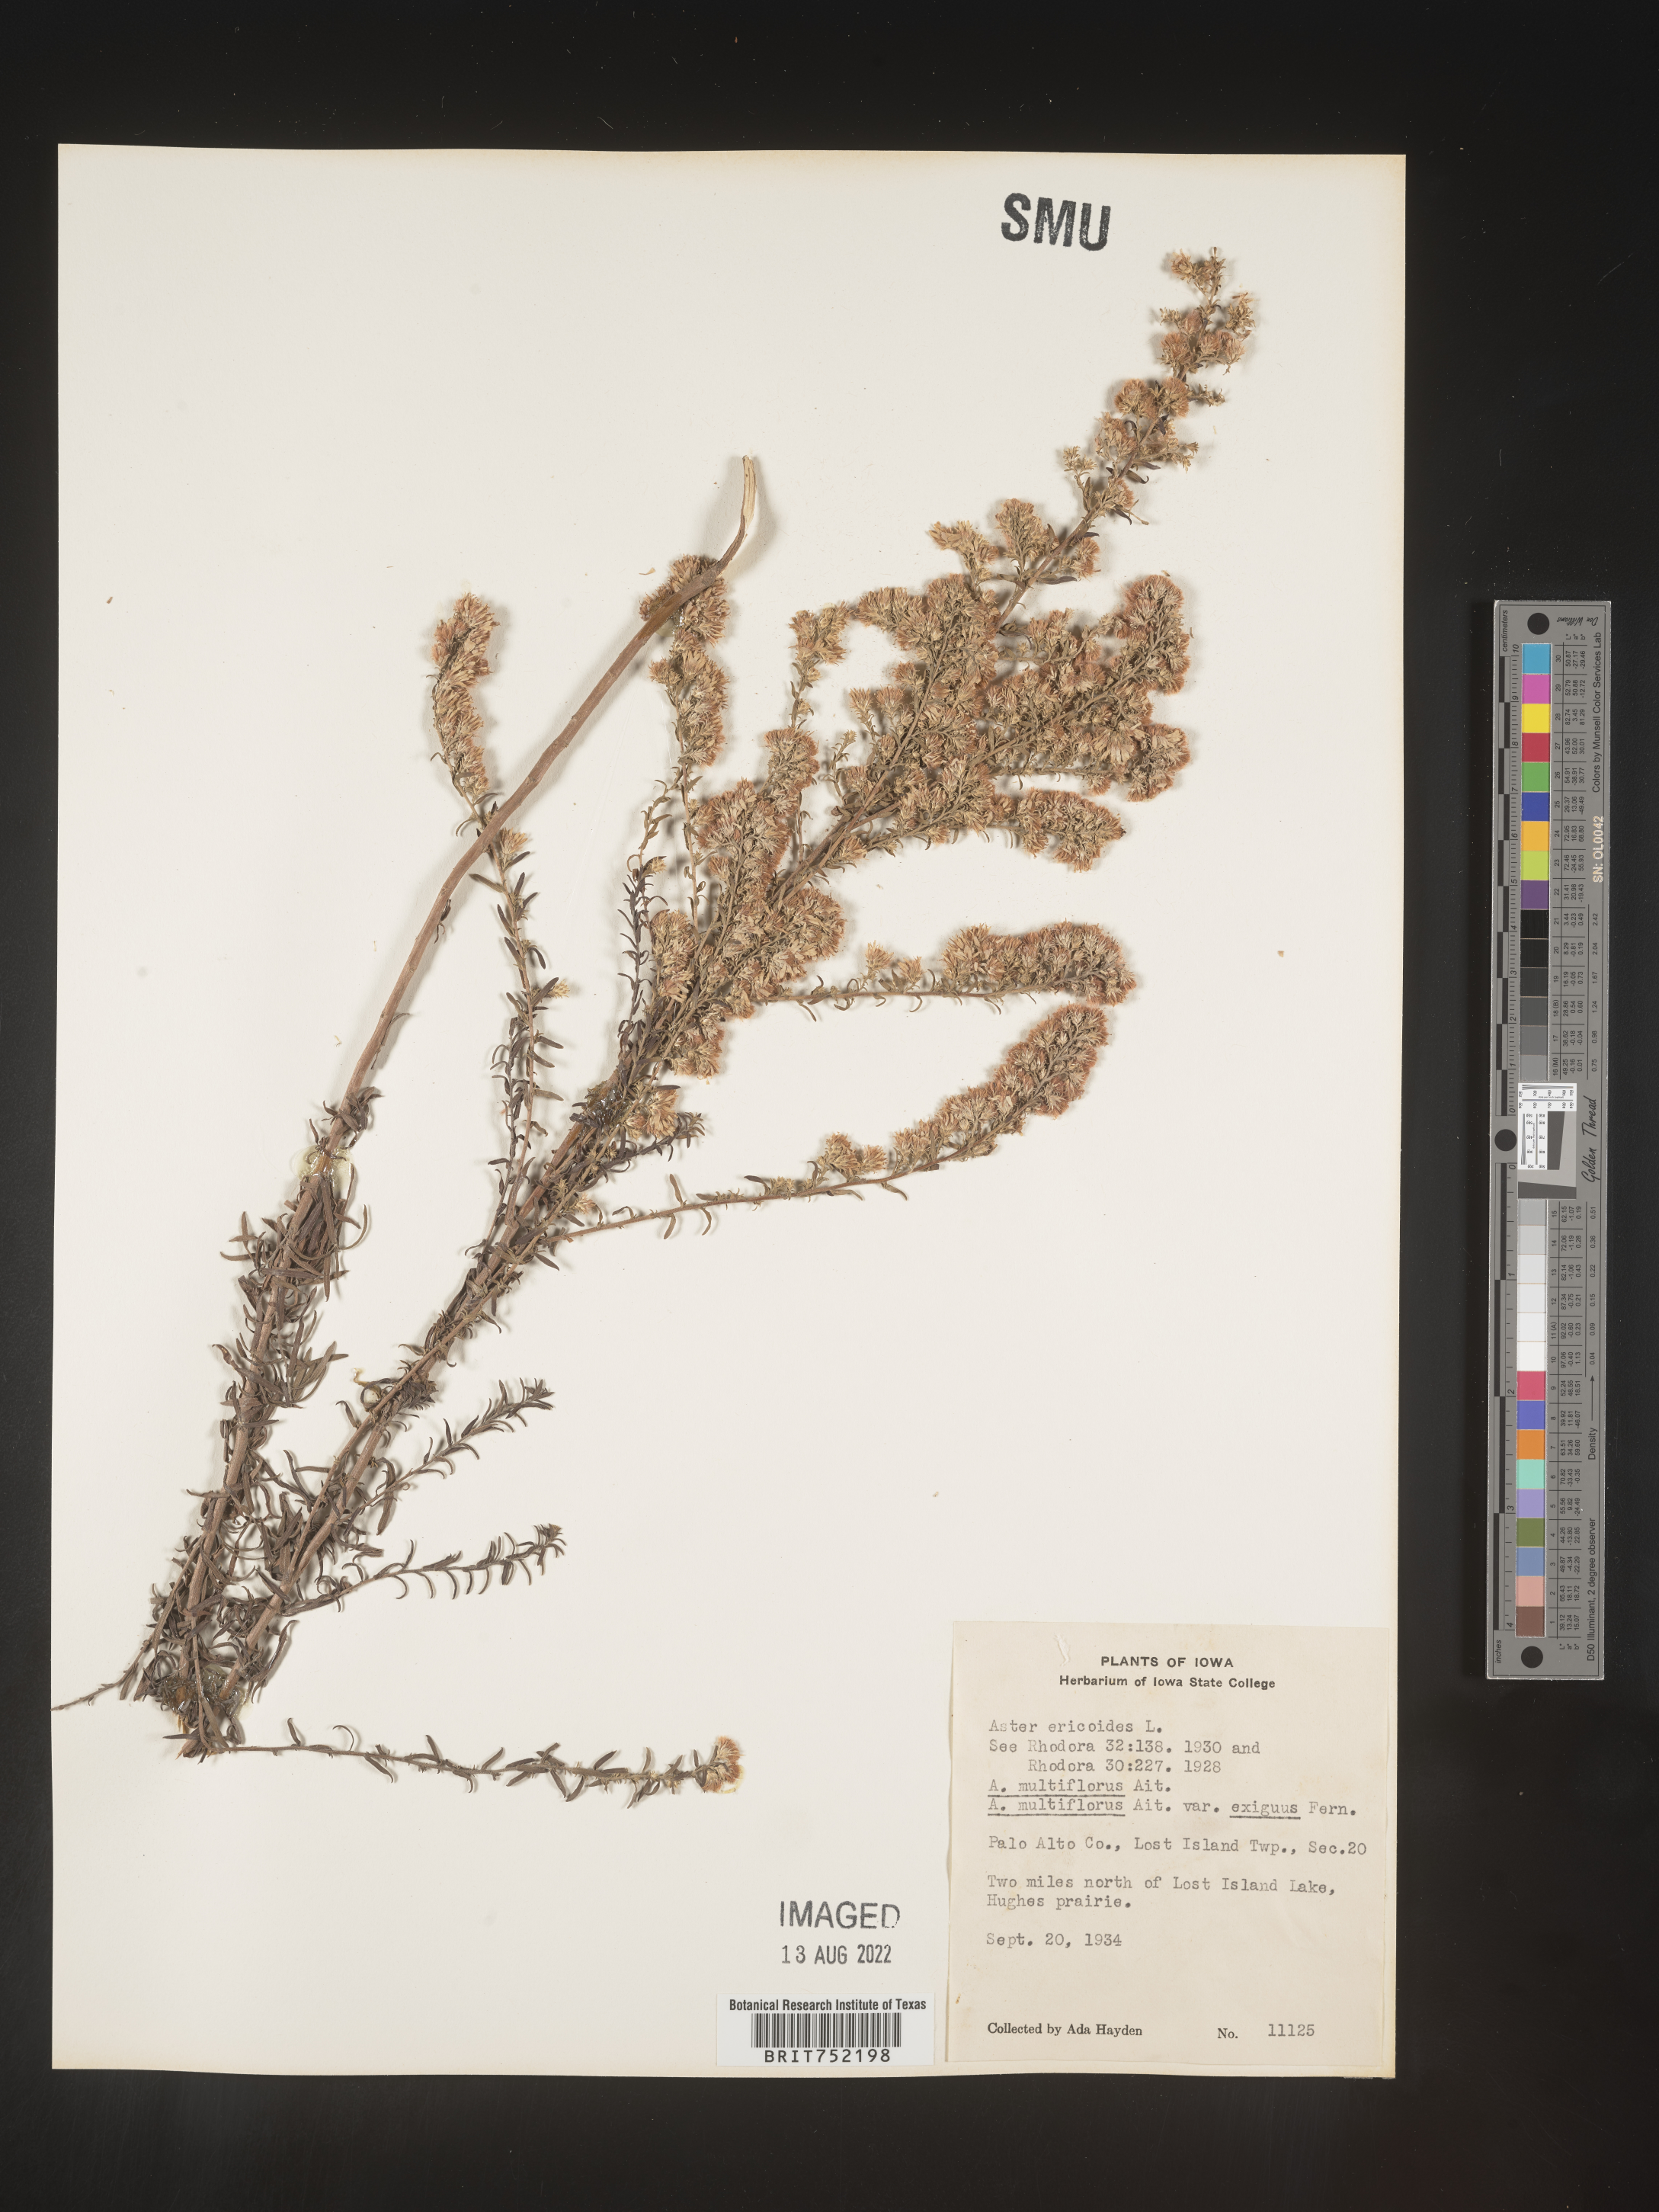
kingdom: Plantae
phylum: Tracheophyta
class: Magnoliopsida
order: Asterales
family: Asteraceae
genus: Symphyotrichum
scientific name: Symphyotrichum ericoides
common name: Heath aster
